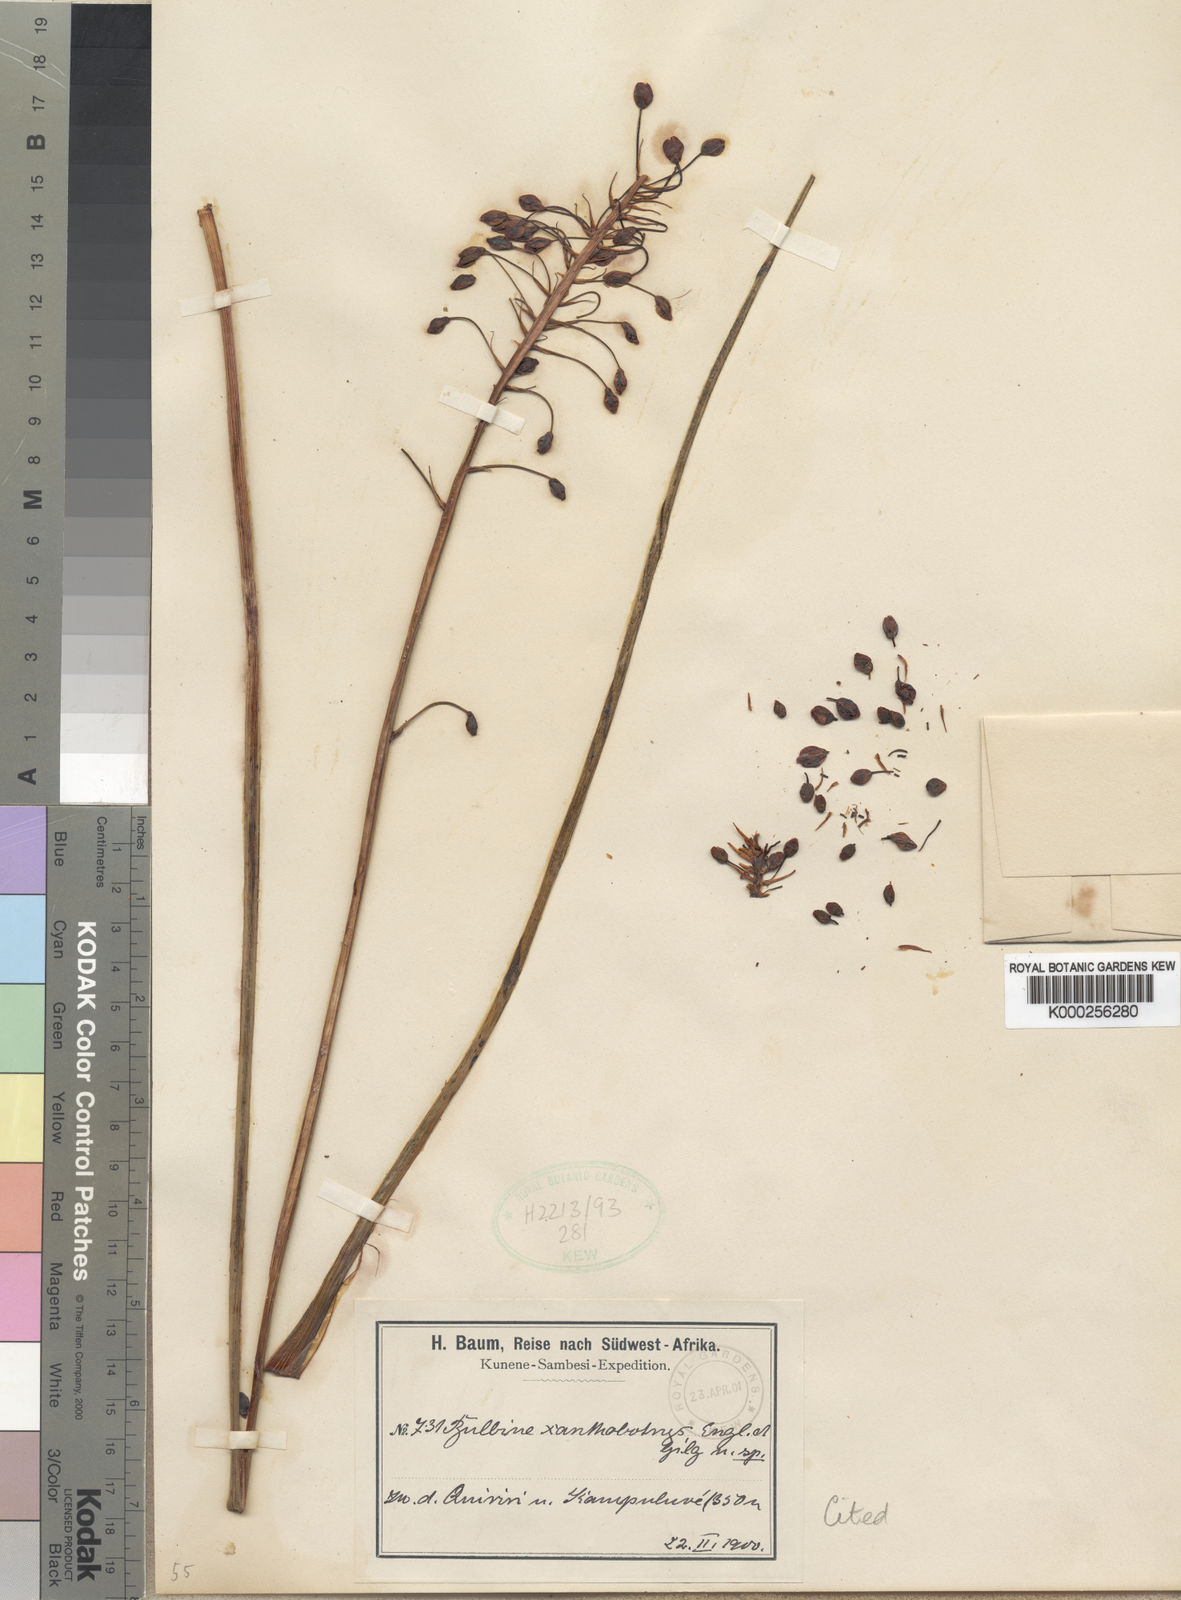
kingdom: Plantae
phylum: Tracheophyta
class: Liliopsida
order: Asparagales
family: Asphodelaceae
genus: Bulbine
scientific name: Bulbine abyssinica
